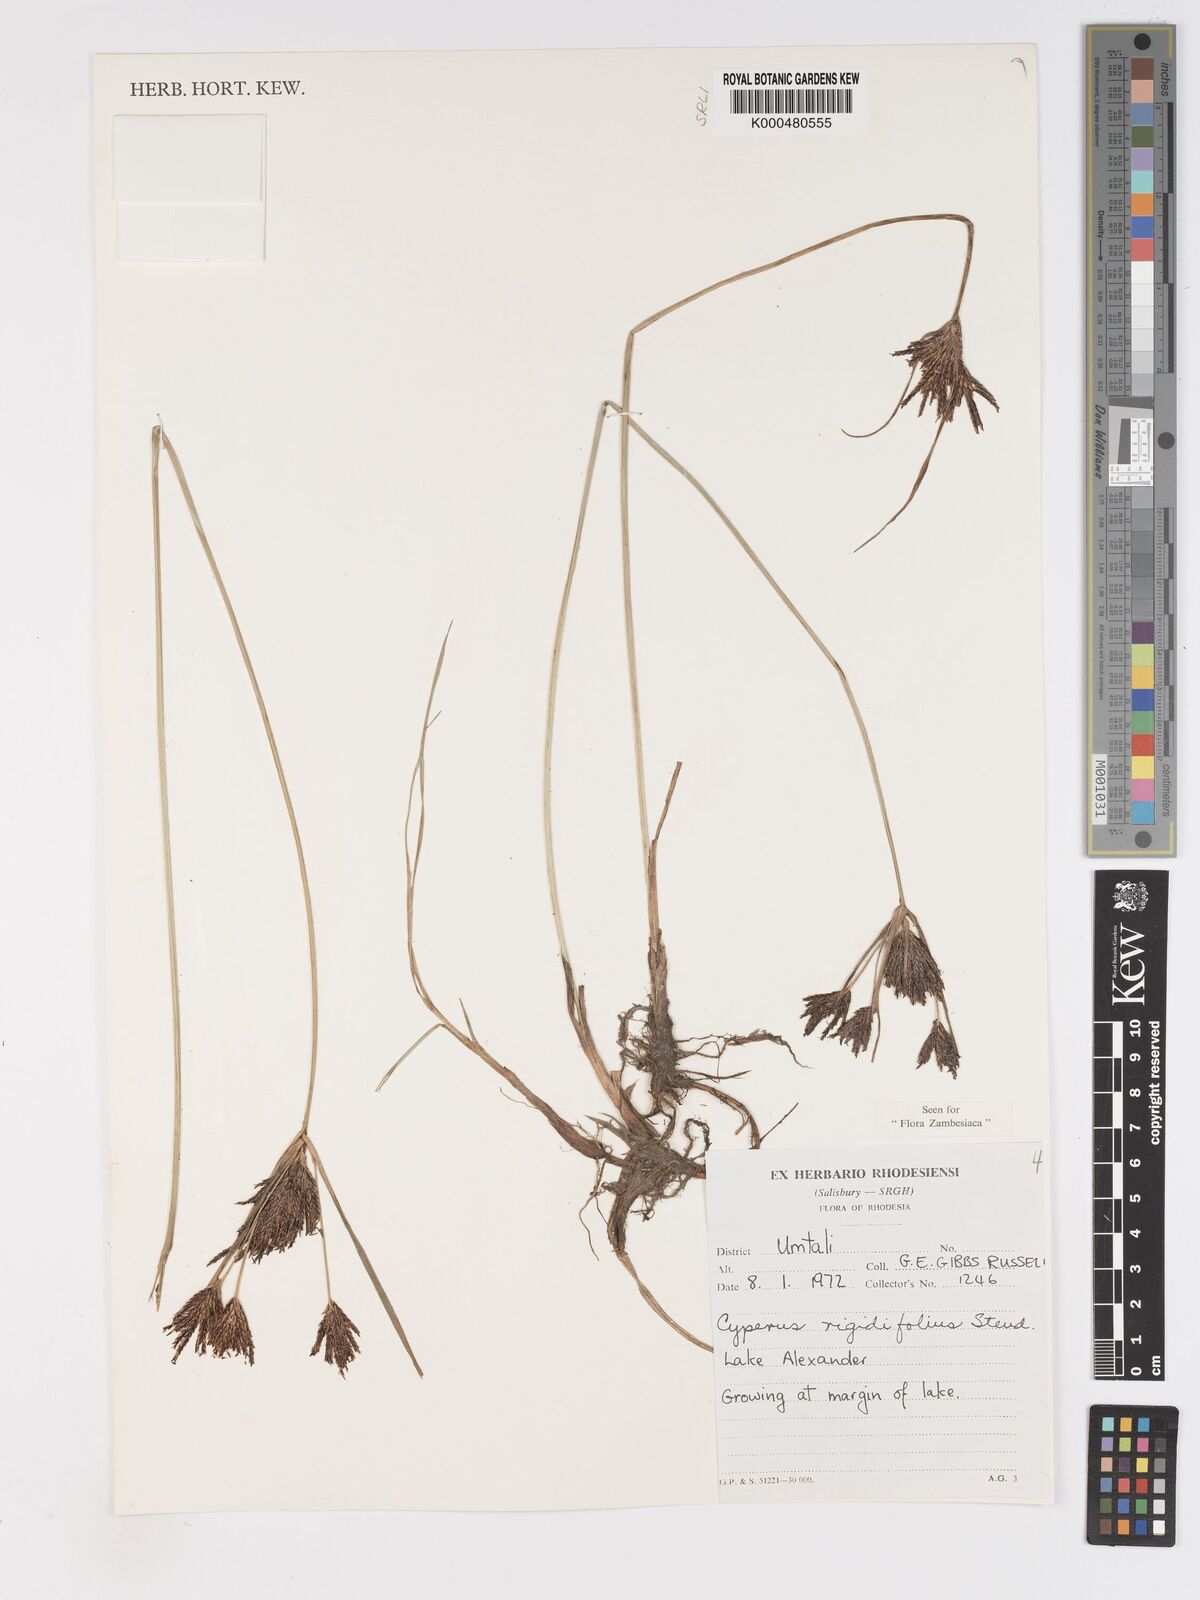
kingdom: Plantae
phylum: Tracheophyta
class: Liliopsida
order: Poales
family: Cyperaceae
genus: Cyperus
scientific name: Cyperus rigidifolius
